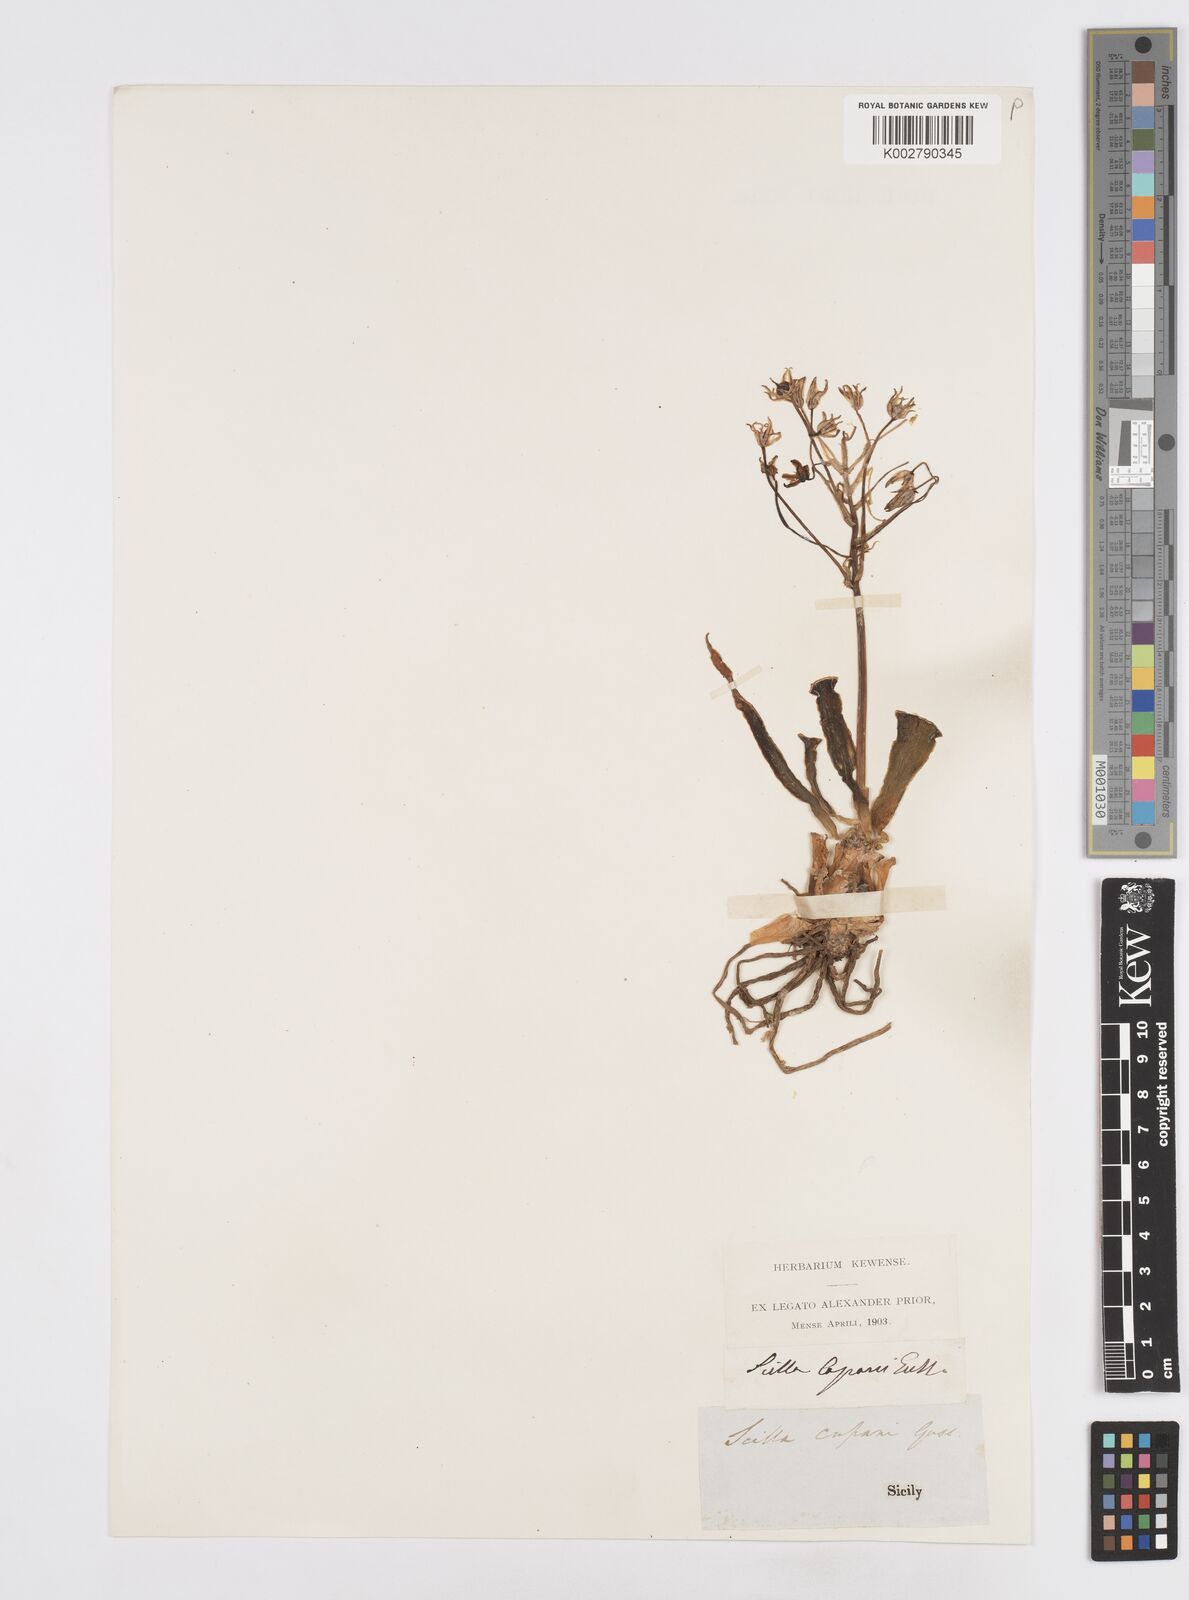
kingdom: Plantae
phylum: Tracheophyta
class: Liliopsida
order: Asparagales
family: Asparagaceae
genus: Scilla
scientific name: Scilla peruviana
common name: Portuguese squill
